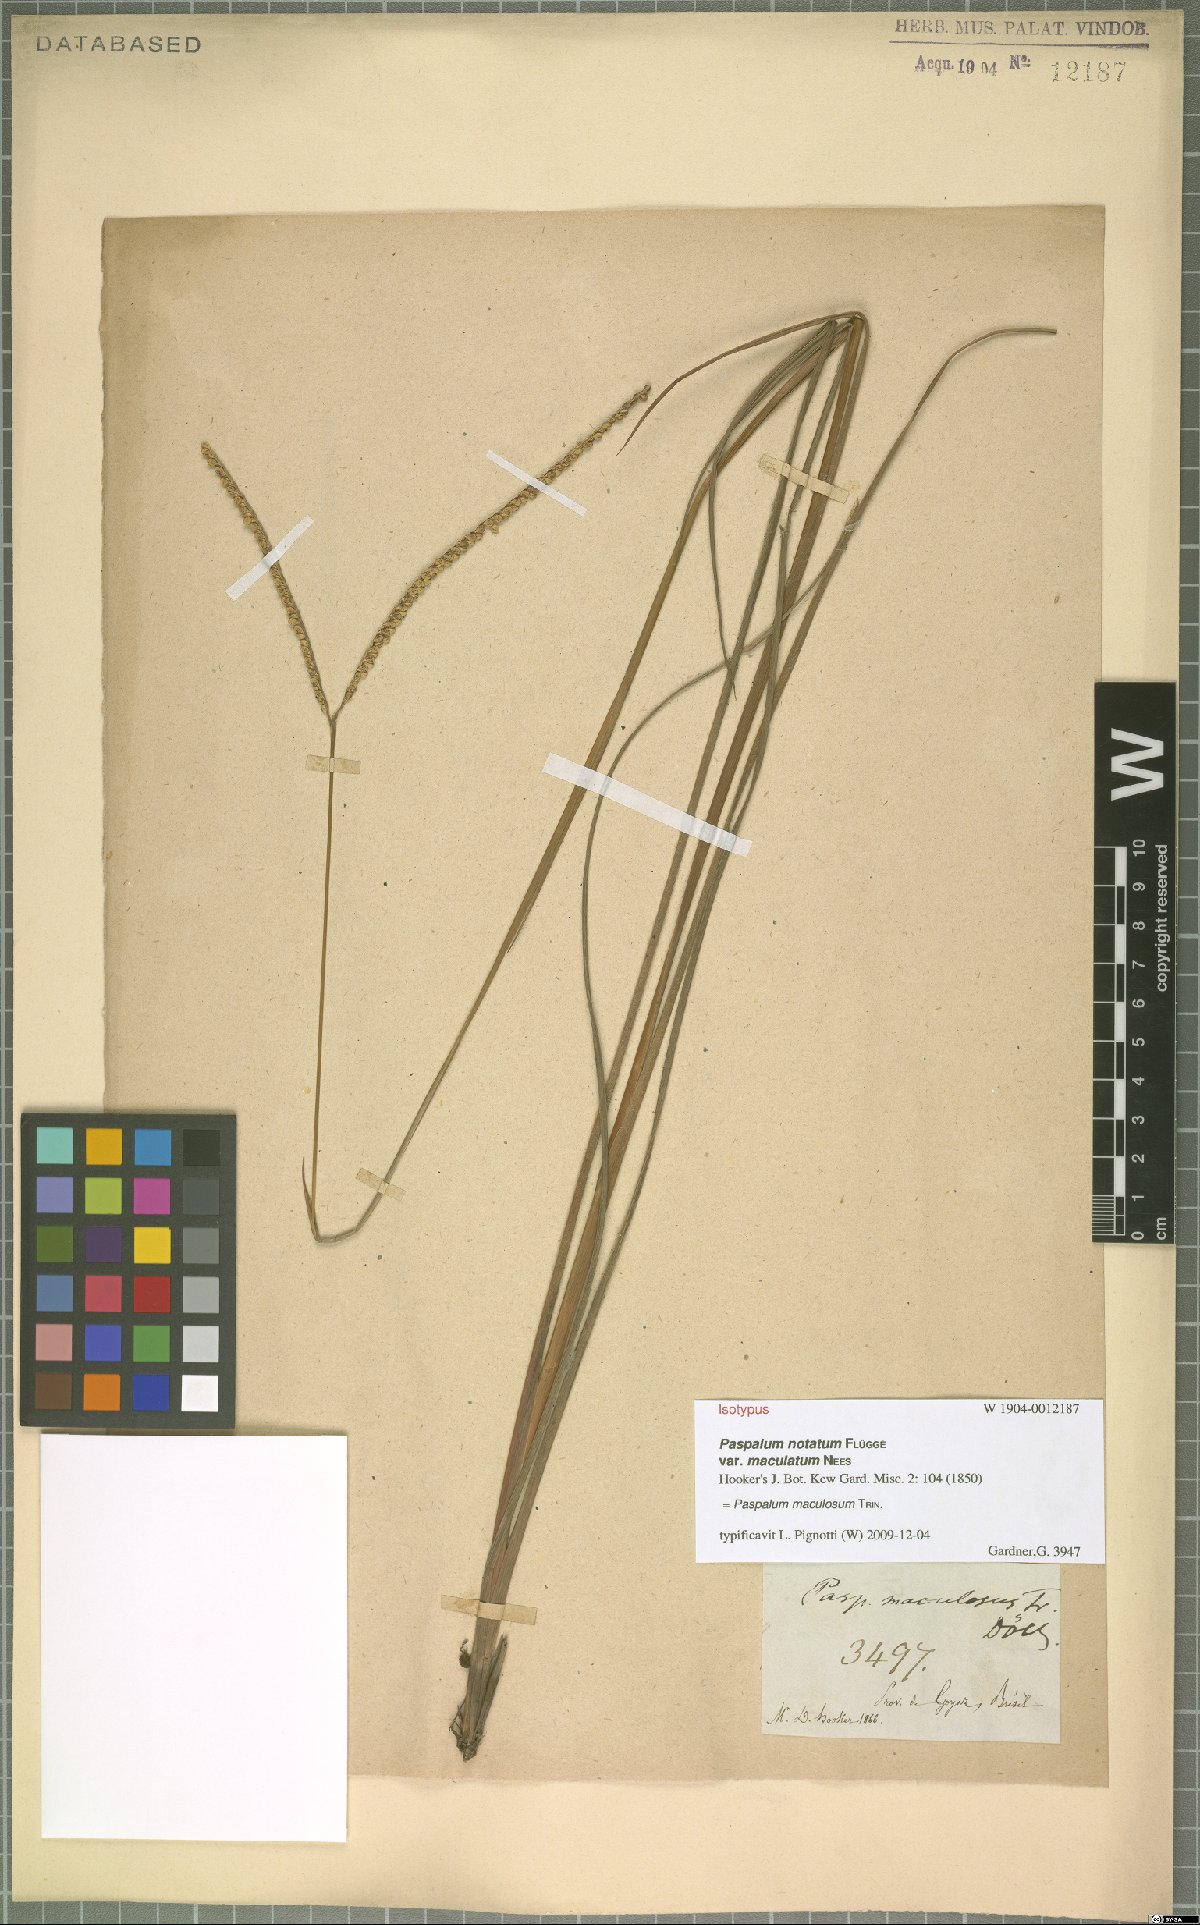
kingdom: Plantae
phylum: Tracheophyta
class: Liliopsida
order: Poales
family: Poaceae
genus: Paspalum
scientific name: Paspalum maculosum
